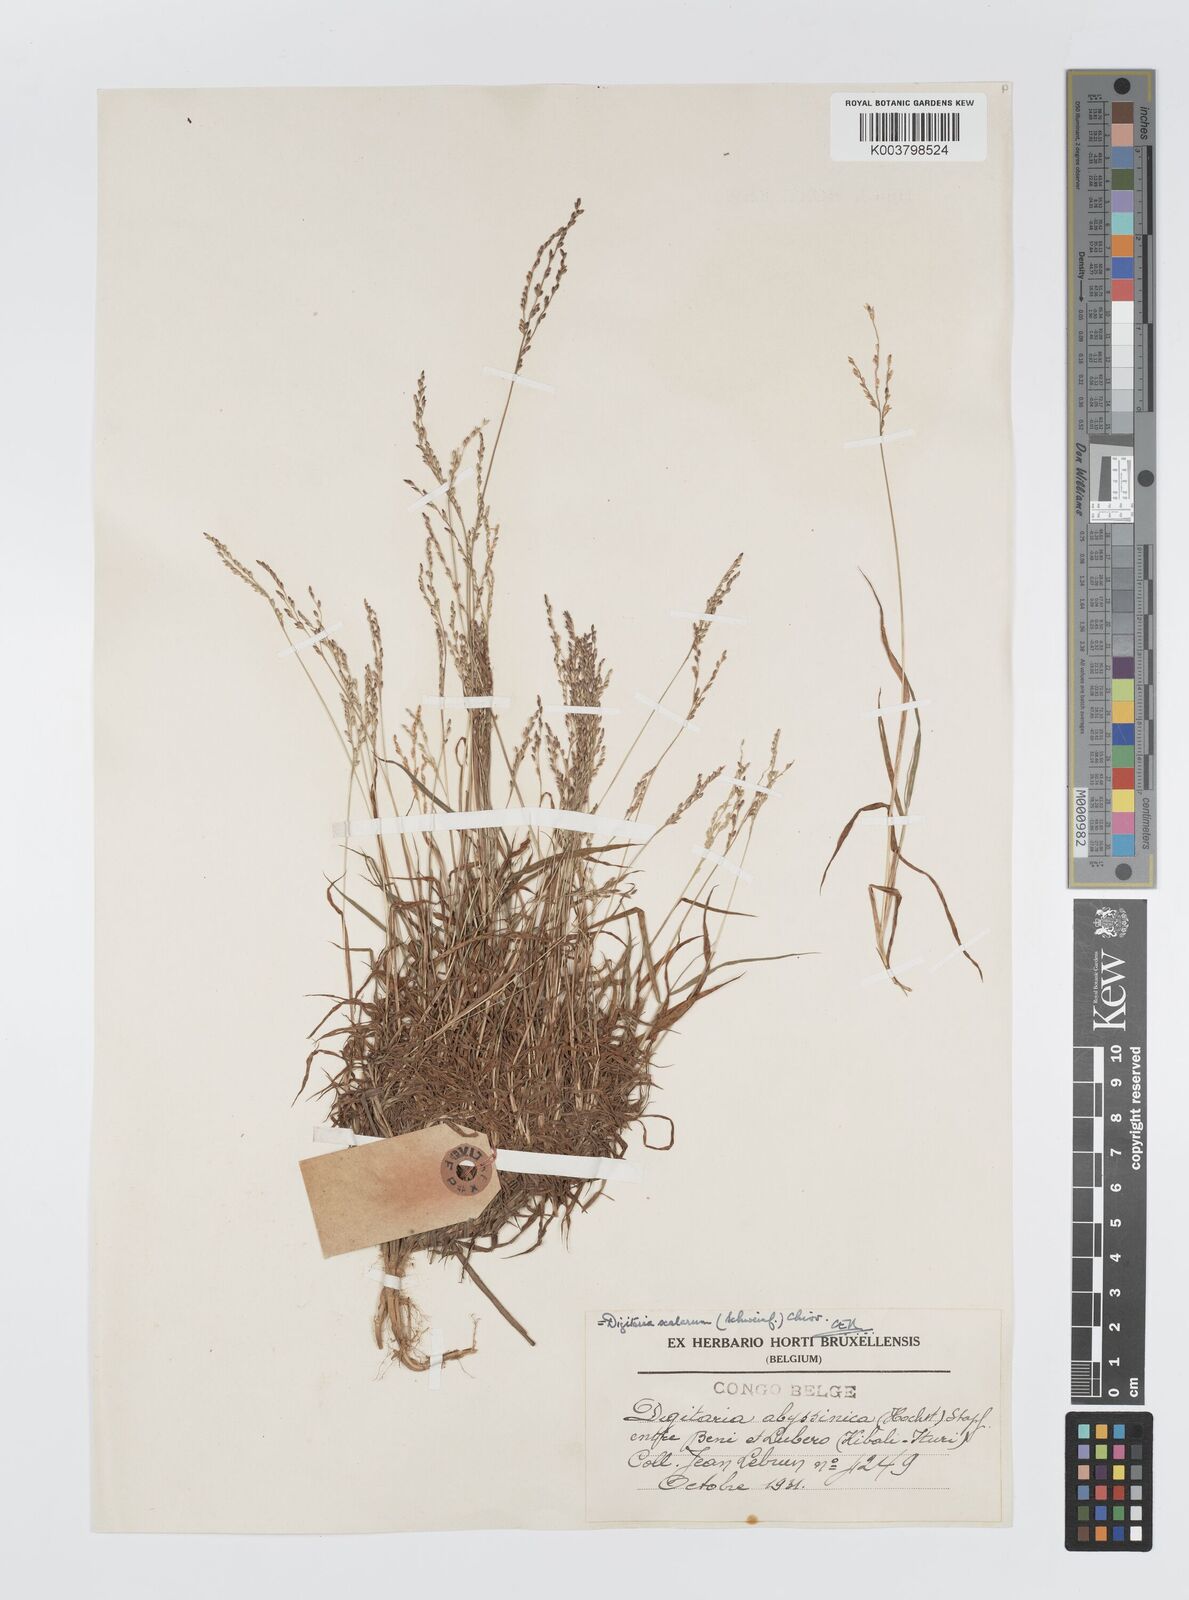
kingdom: Plantae
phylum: Tracheophyta
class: Liliopsida
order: Poales
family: Poaceae
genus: Digitaria
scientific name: Digitaria abyssinica
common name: African couchgrass
